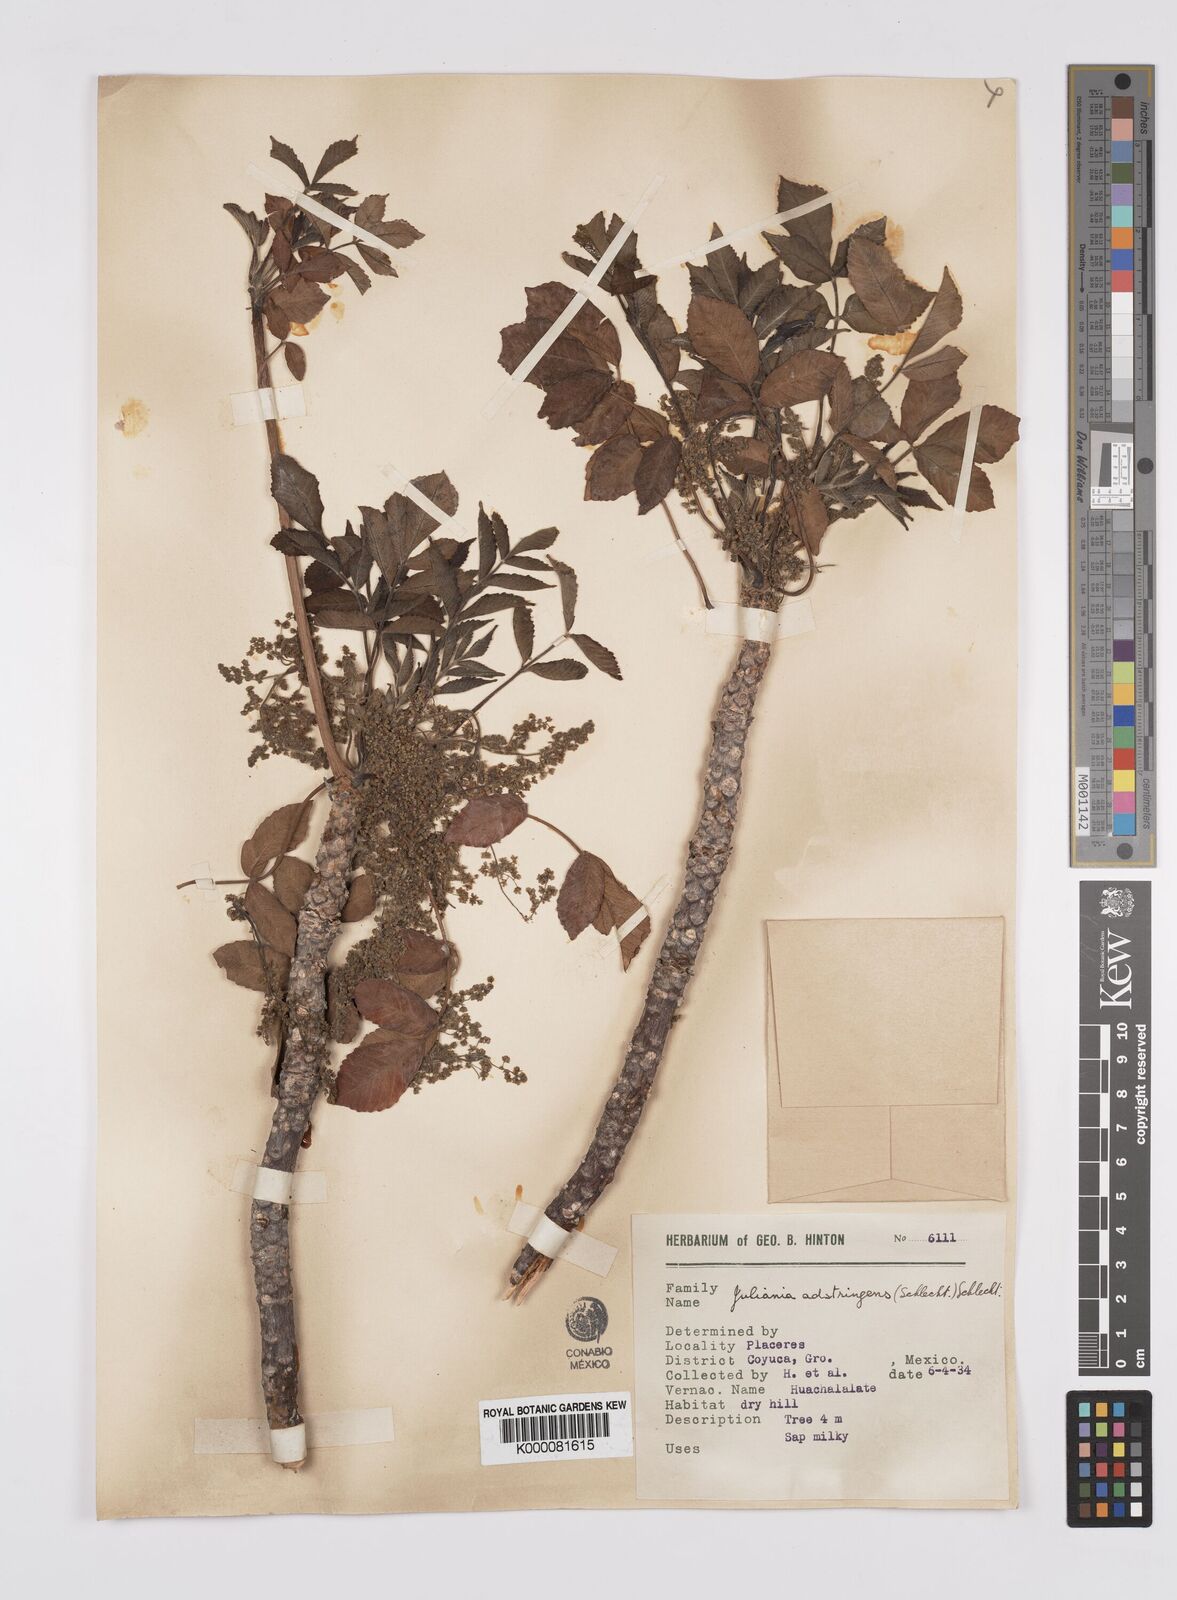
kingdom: Plantae
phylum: Tracheophyta
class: Magnoliopsida
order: Sapindales
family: Anacardiaceae
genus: Amphipterygium
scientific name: Amphipterygium adstringens
